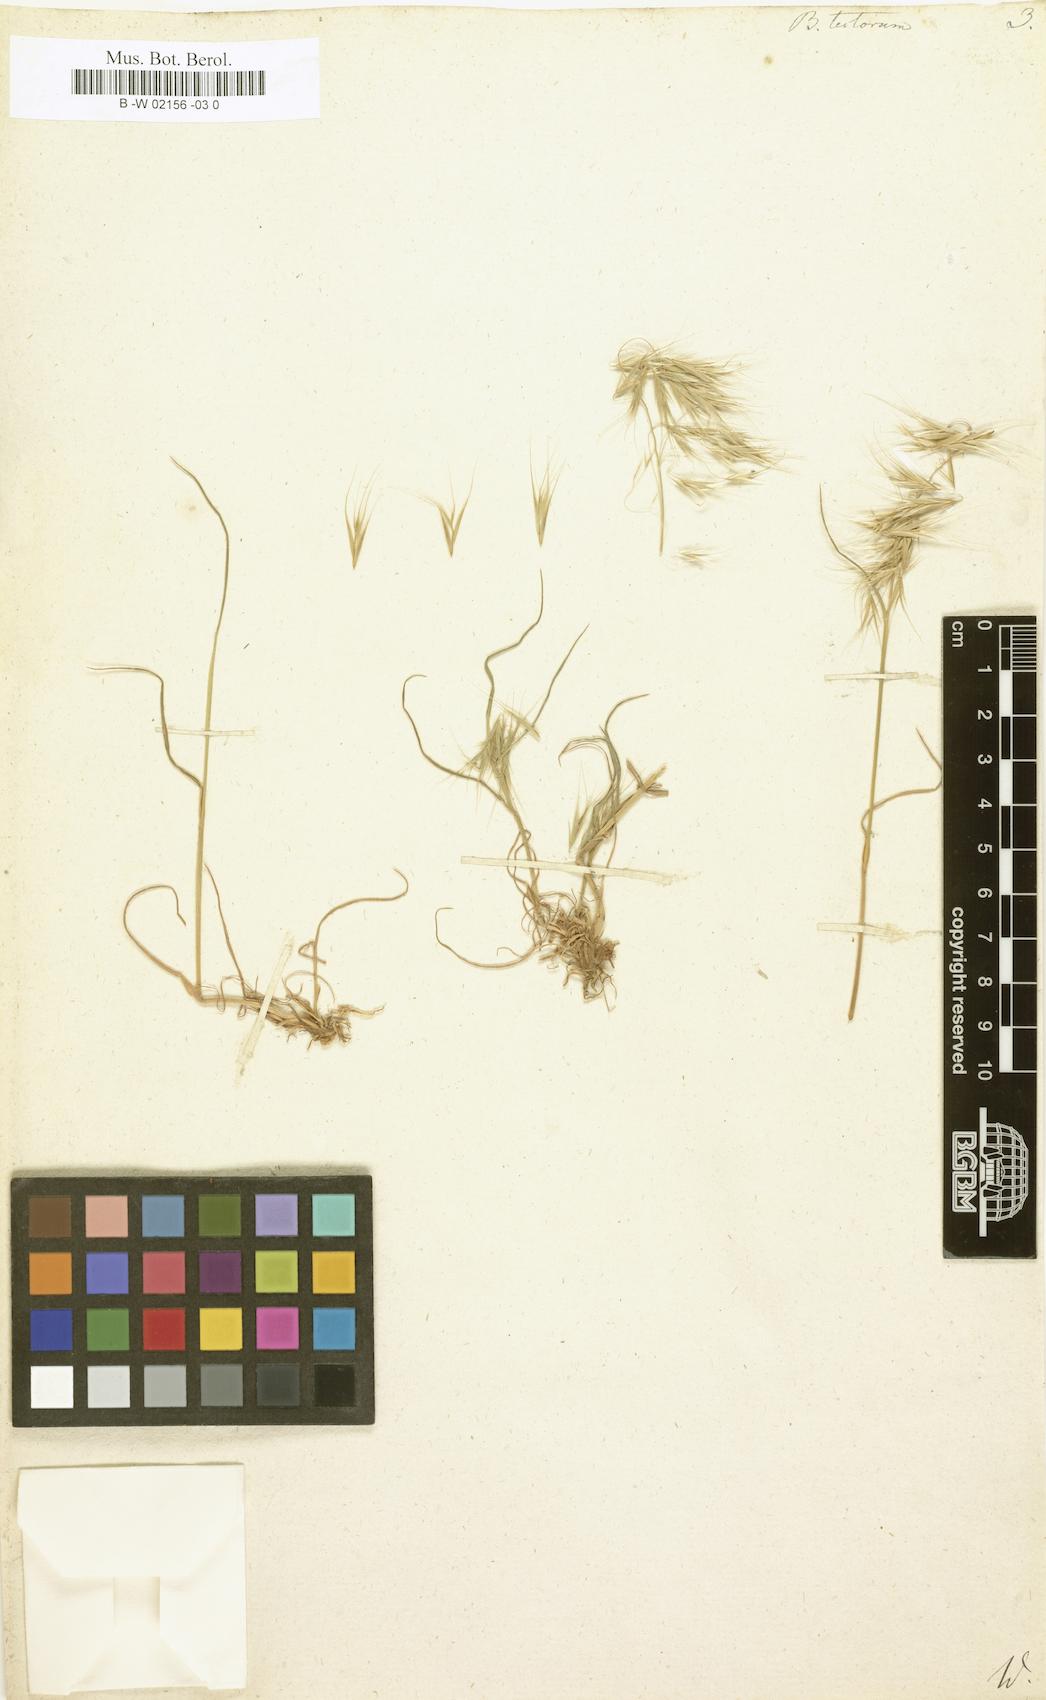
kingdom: Plantae
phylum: Tracheophyta
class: Liliopsida
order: Poales
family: Poaceae
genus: Bromus
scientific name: Bromus tectorum
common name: Cheatgrass
